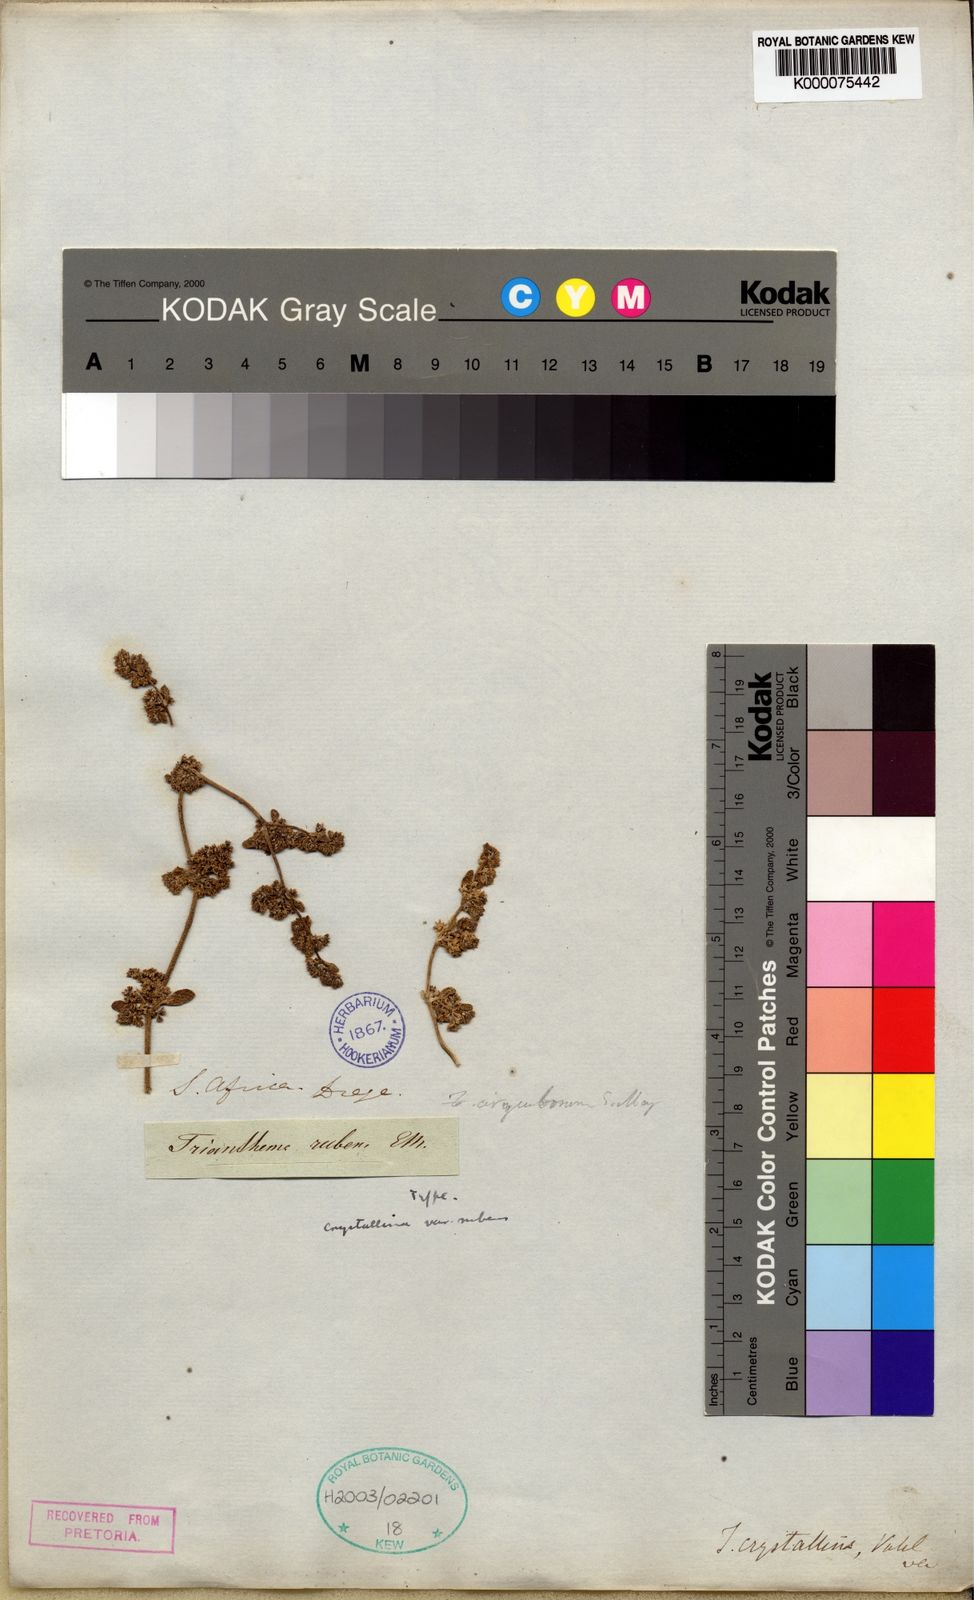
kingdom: Plantae
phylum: Tracheophyta
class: Magnoliopsida
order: Caryophyllales
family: Aizoaceae
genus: Trianthema
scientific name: Trianthema
